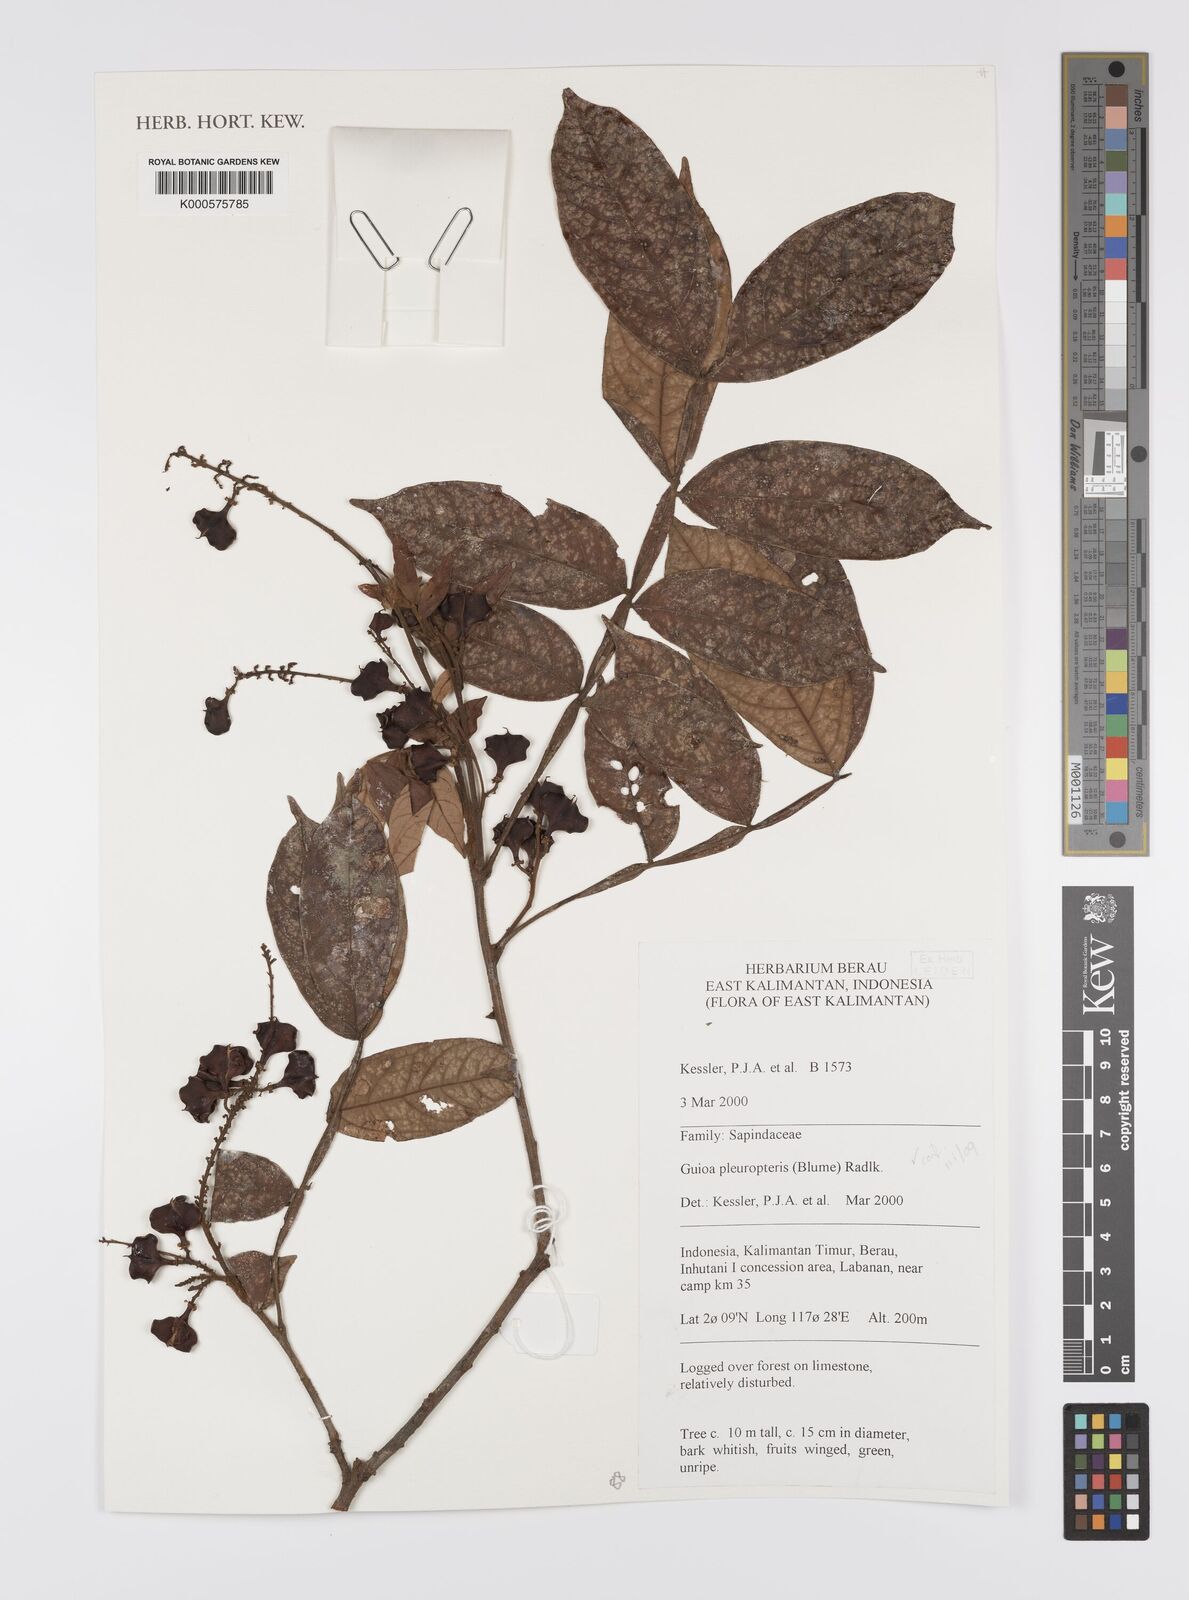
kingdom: Plantae
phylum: Tracheophyta
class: Magnoliopsida
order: Sapindales
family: Sapindaceae
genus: Guioa
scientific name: Guioa pleuropteris
